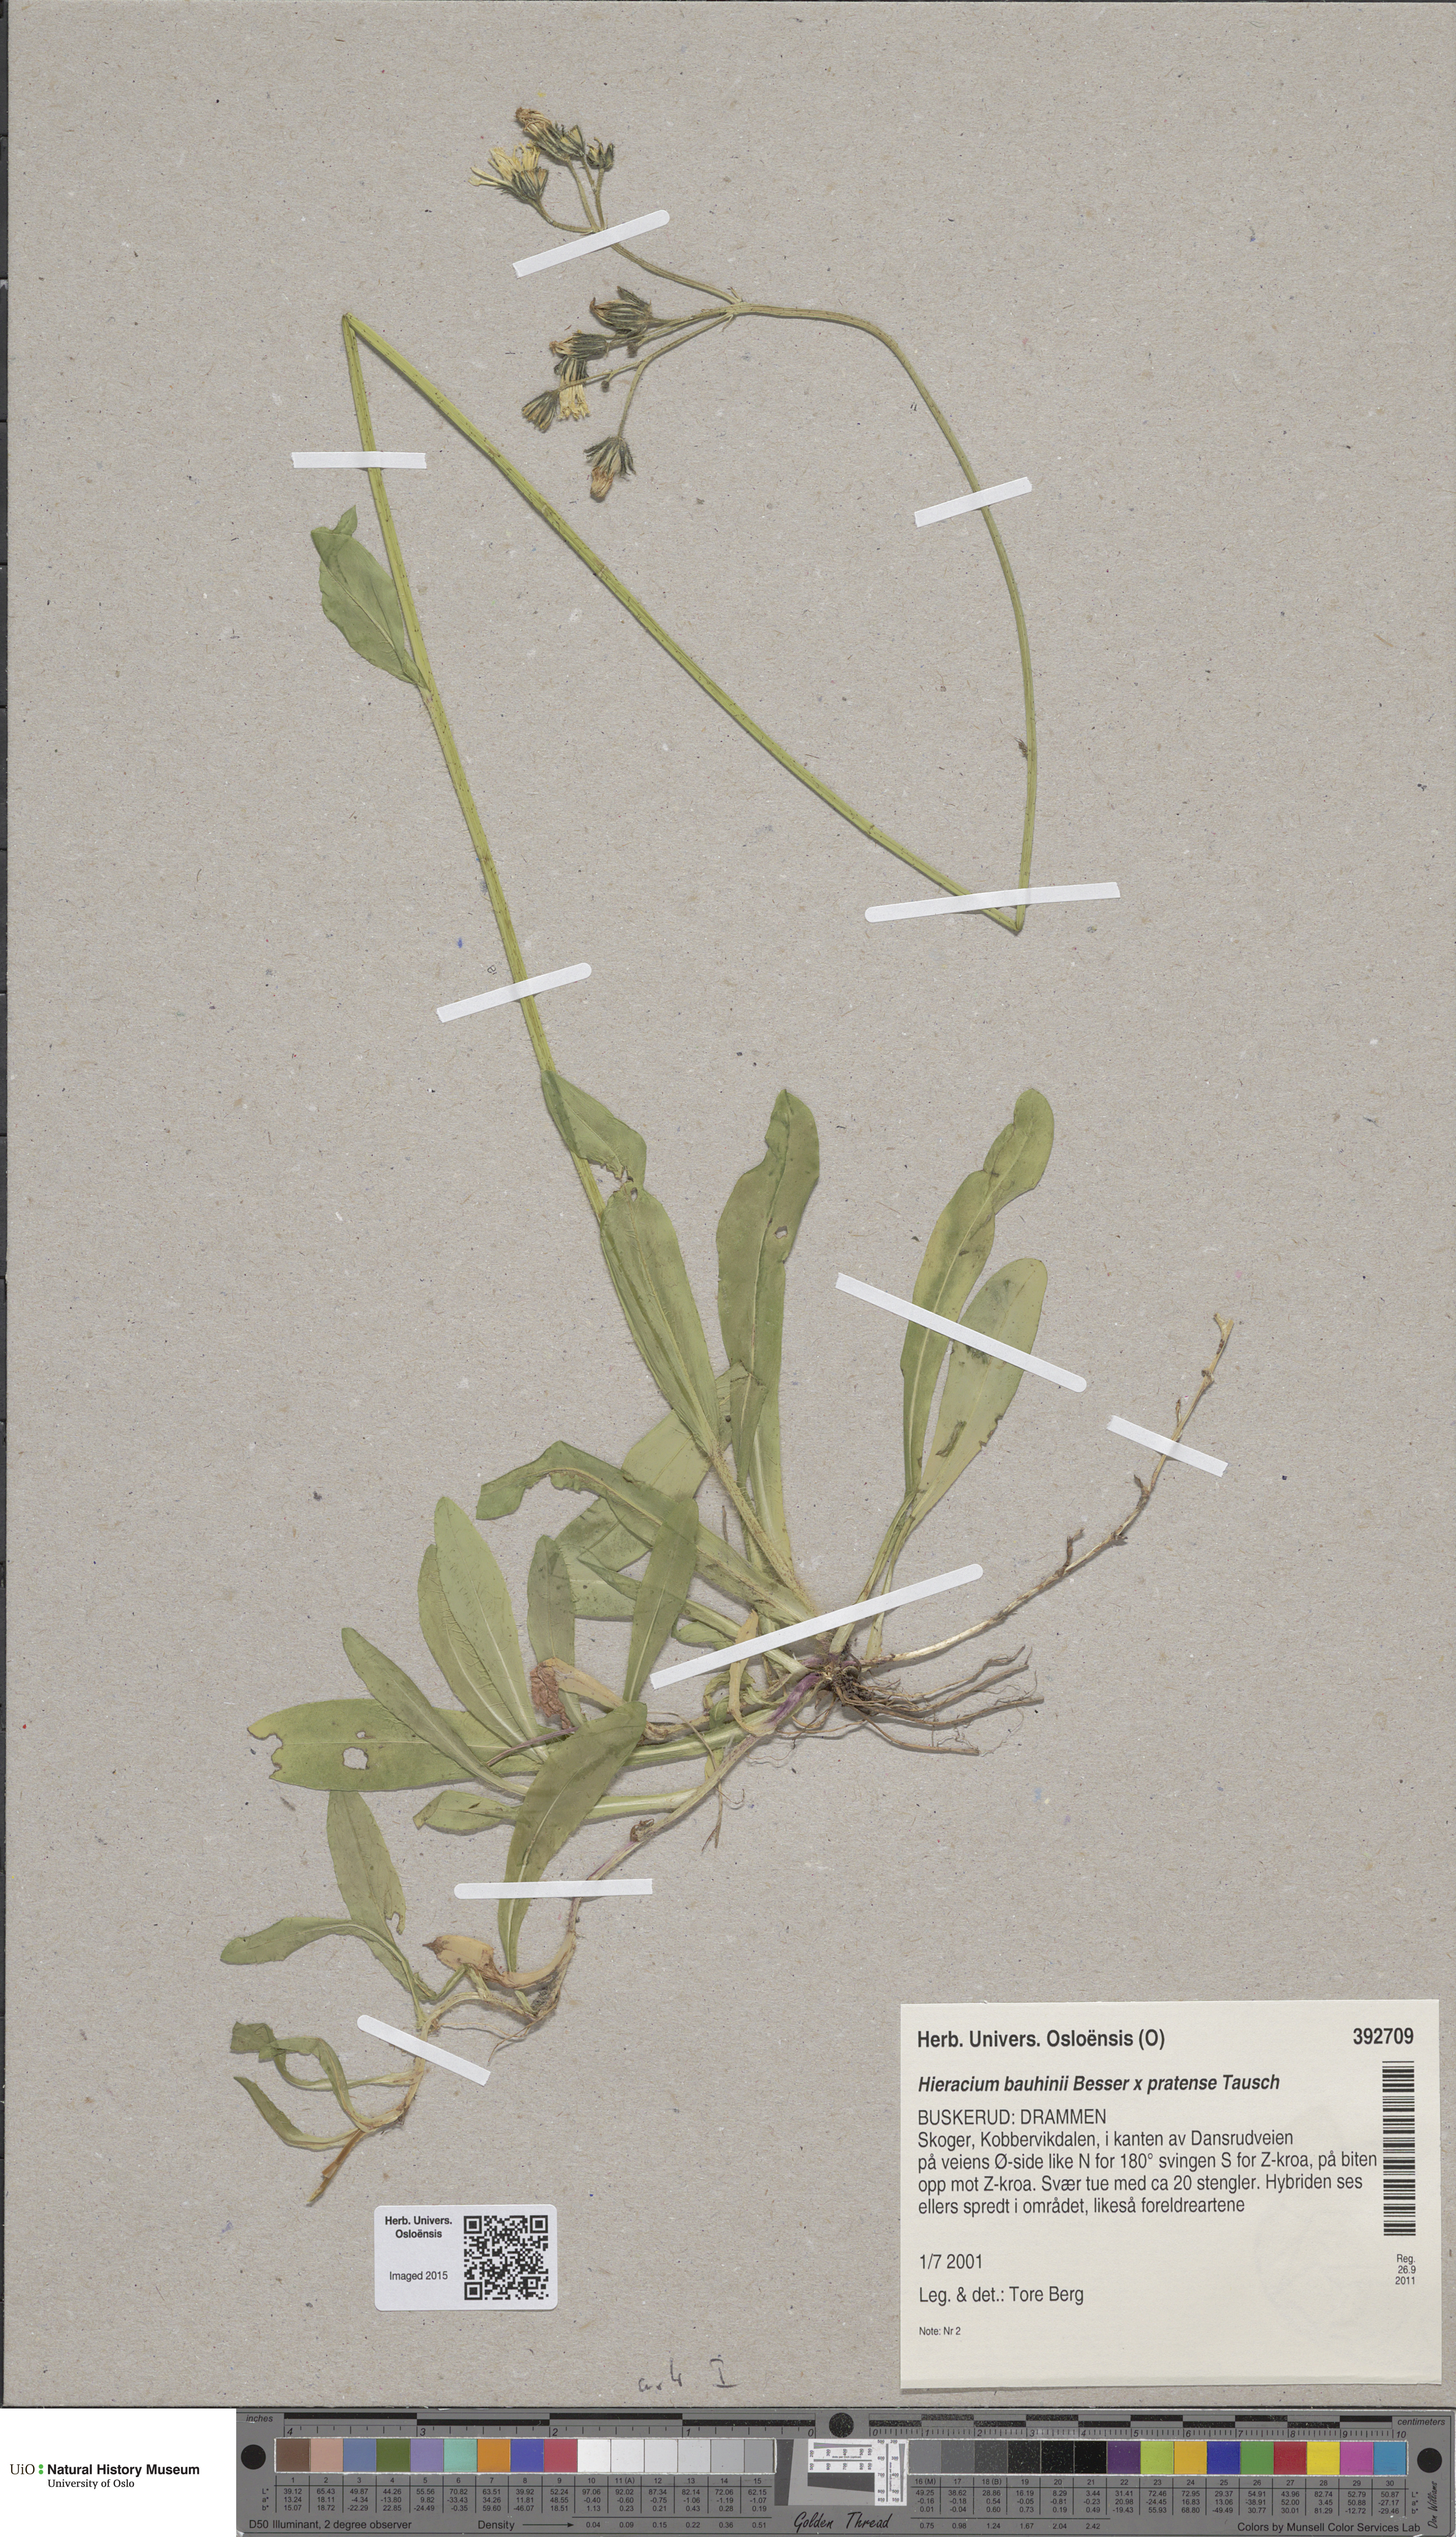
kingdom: Plantae
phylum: Tracheophyta
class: Magnoliopsida
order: Asterales
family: Asteraceae
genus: Pilosella
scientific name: Pilosella
